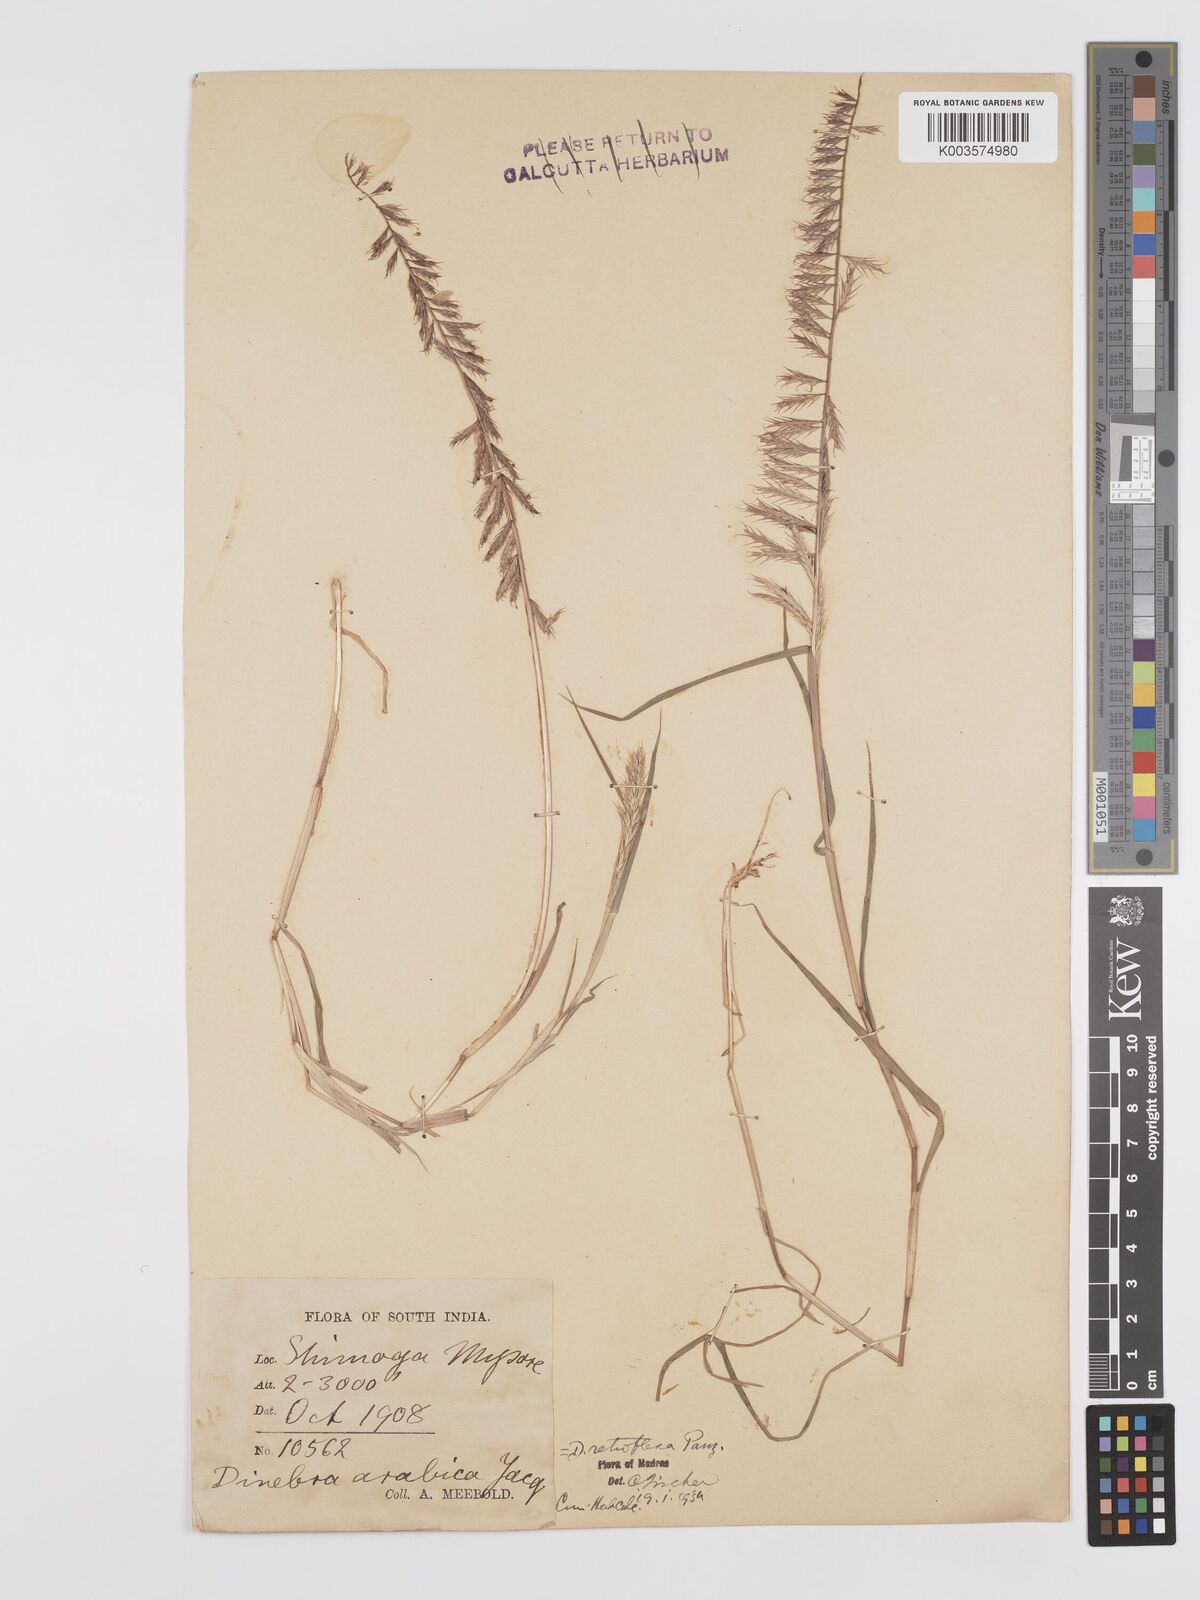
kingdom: Plantae
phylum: Tracheophyta
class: Liliopsida
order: Poales
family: Poaceae
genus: Dinebra
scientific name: Dinebra retroflexa
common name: Viper grass
